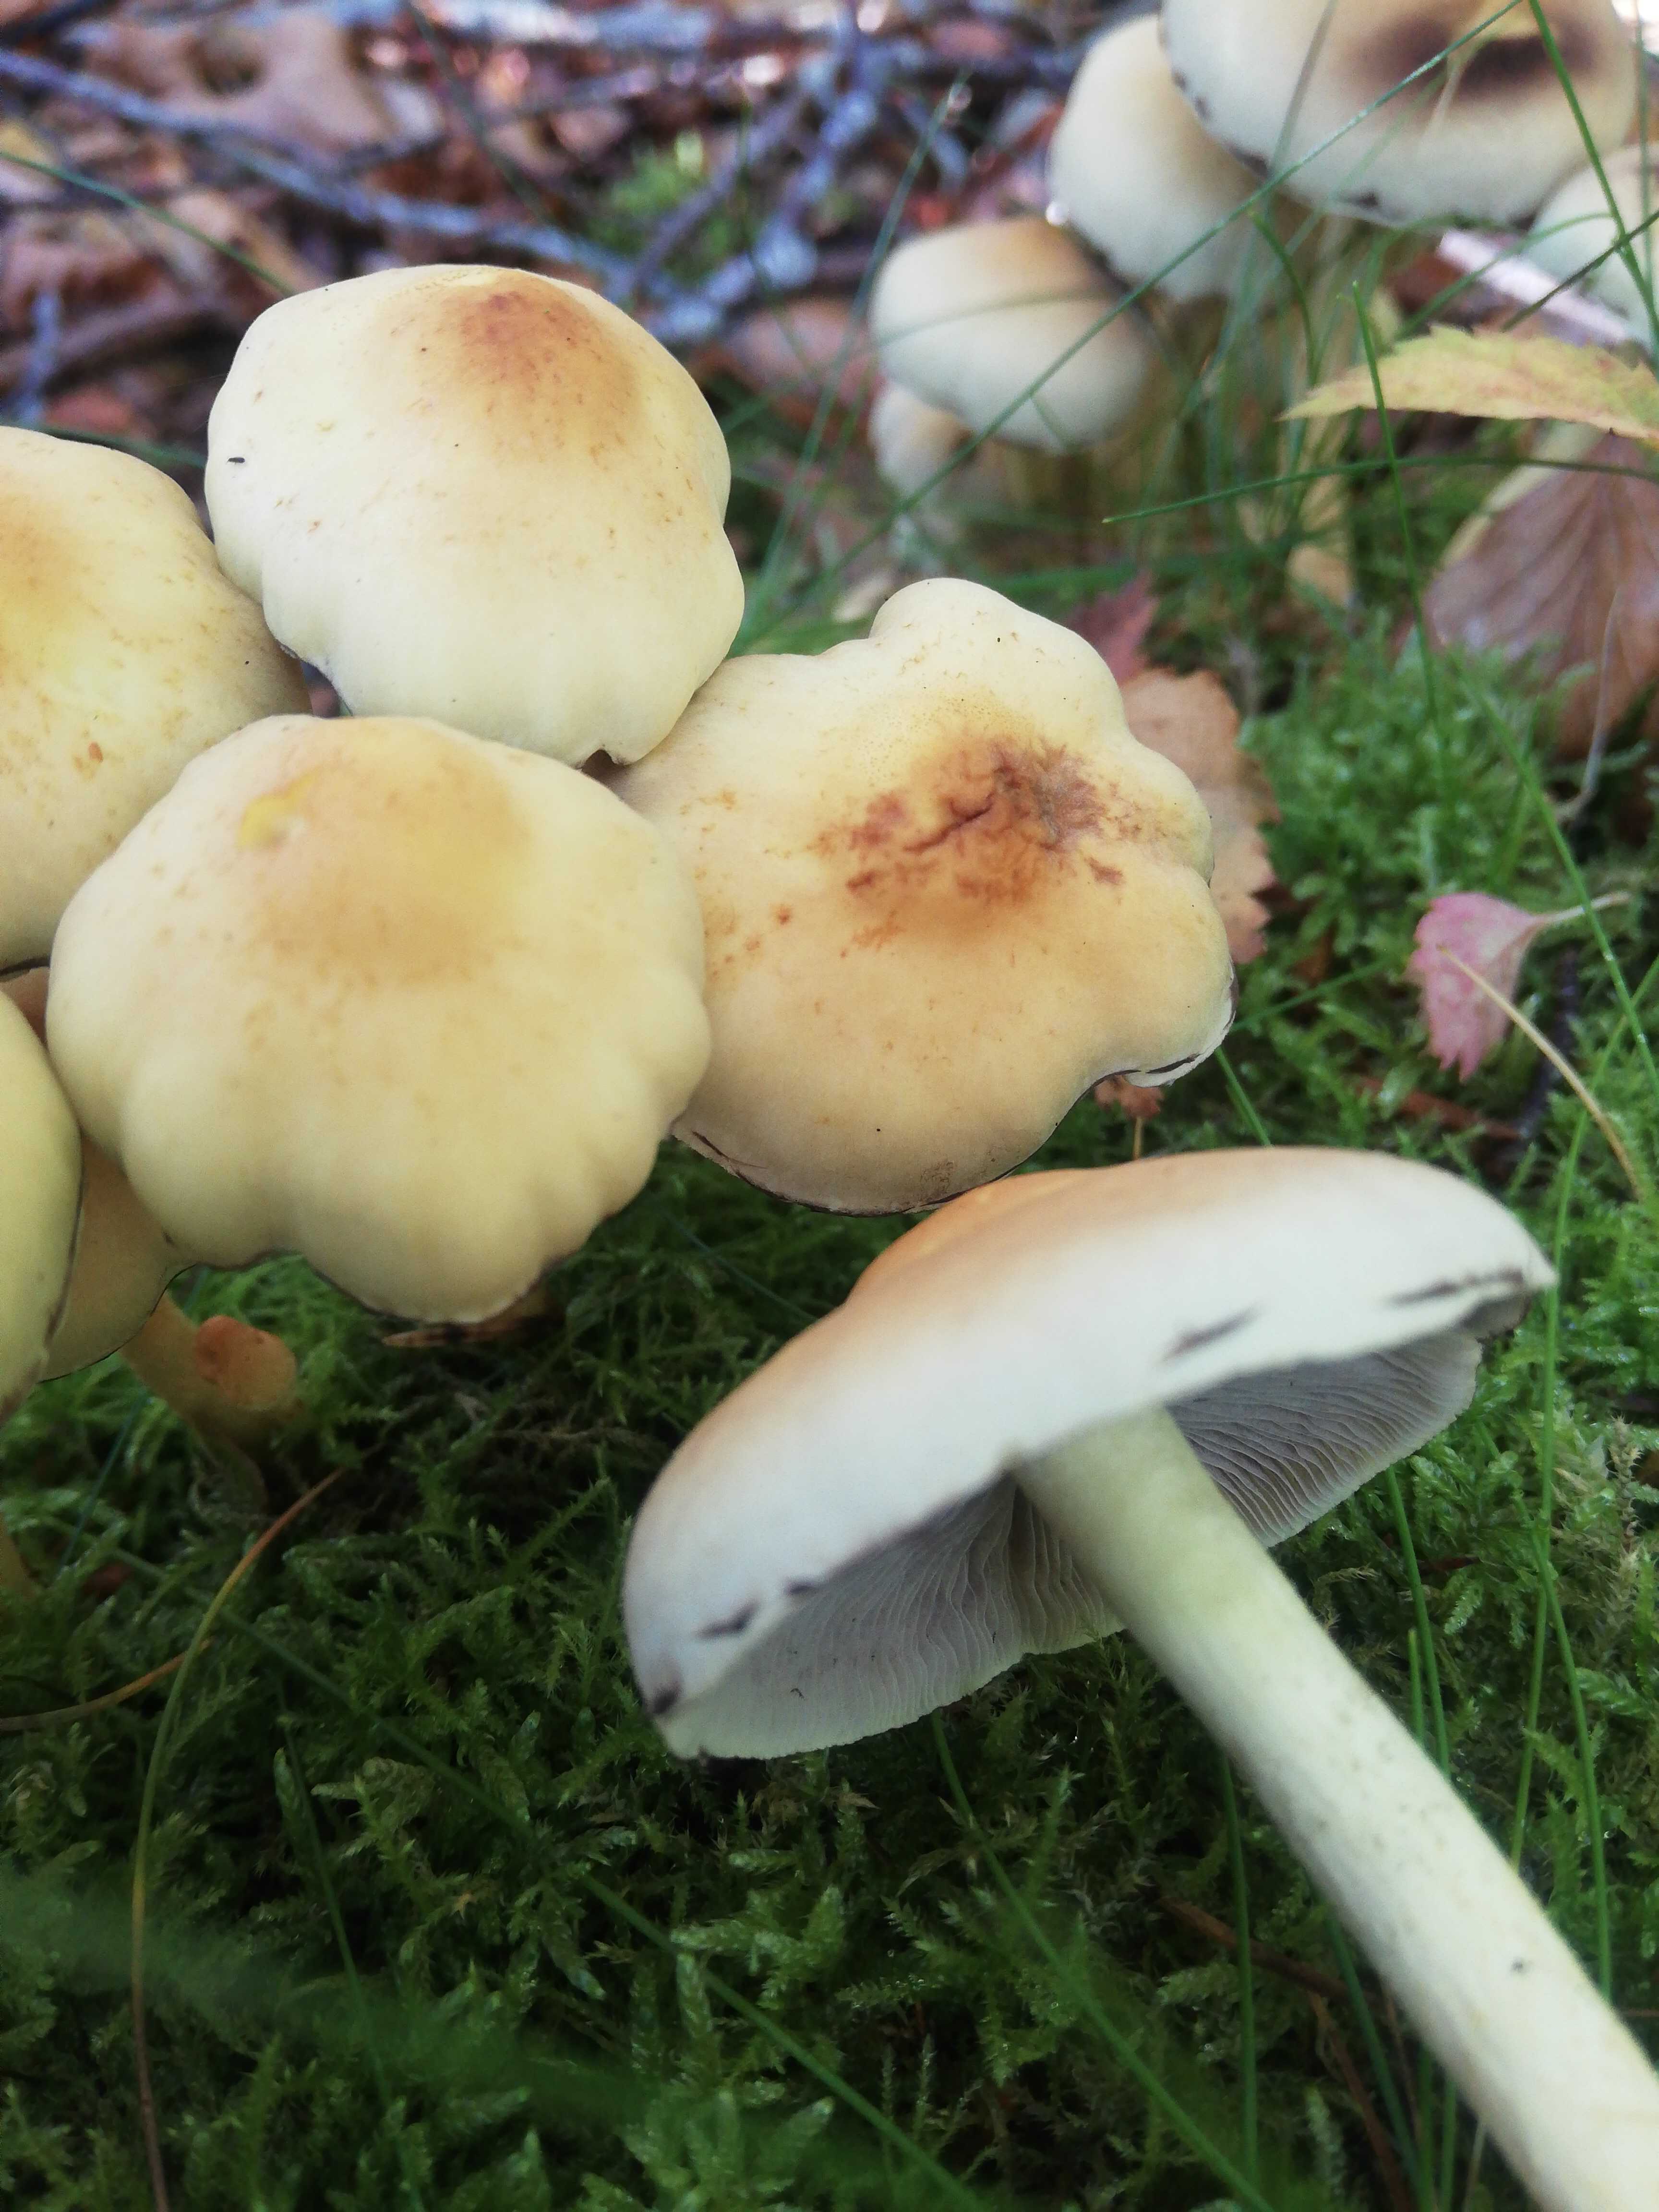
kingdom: Fungi
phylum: Basidiomycota
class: Agaricomycetes
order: Agaricales
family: Strophariaceae
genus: Hypholoma
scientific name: Hypholoma fasciculare
